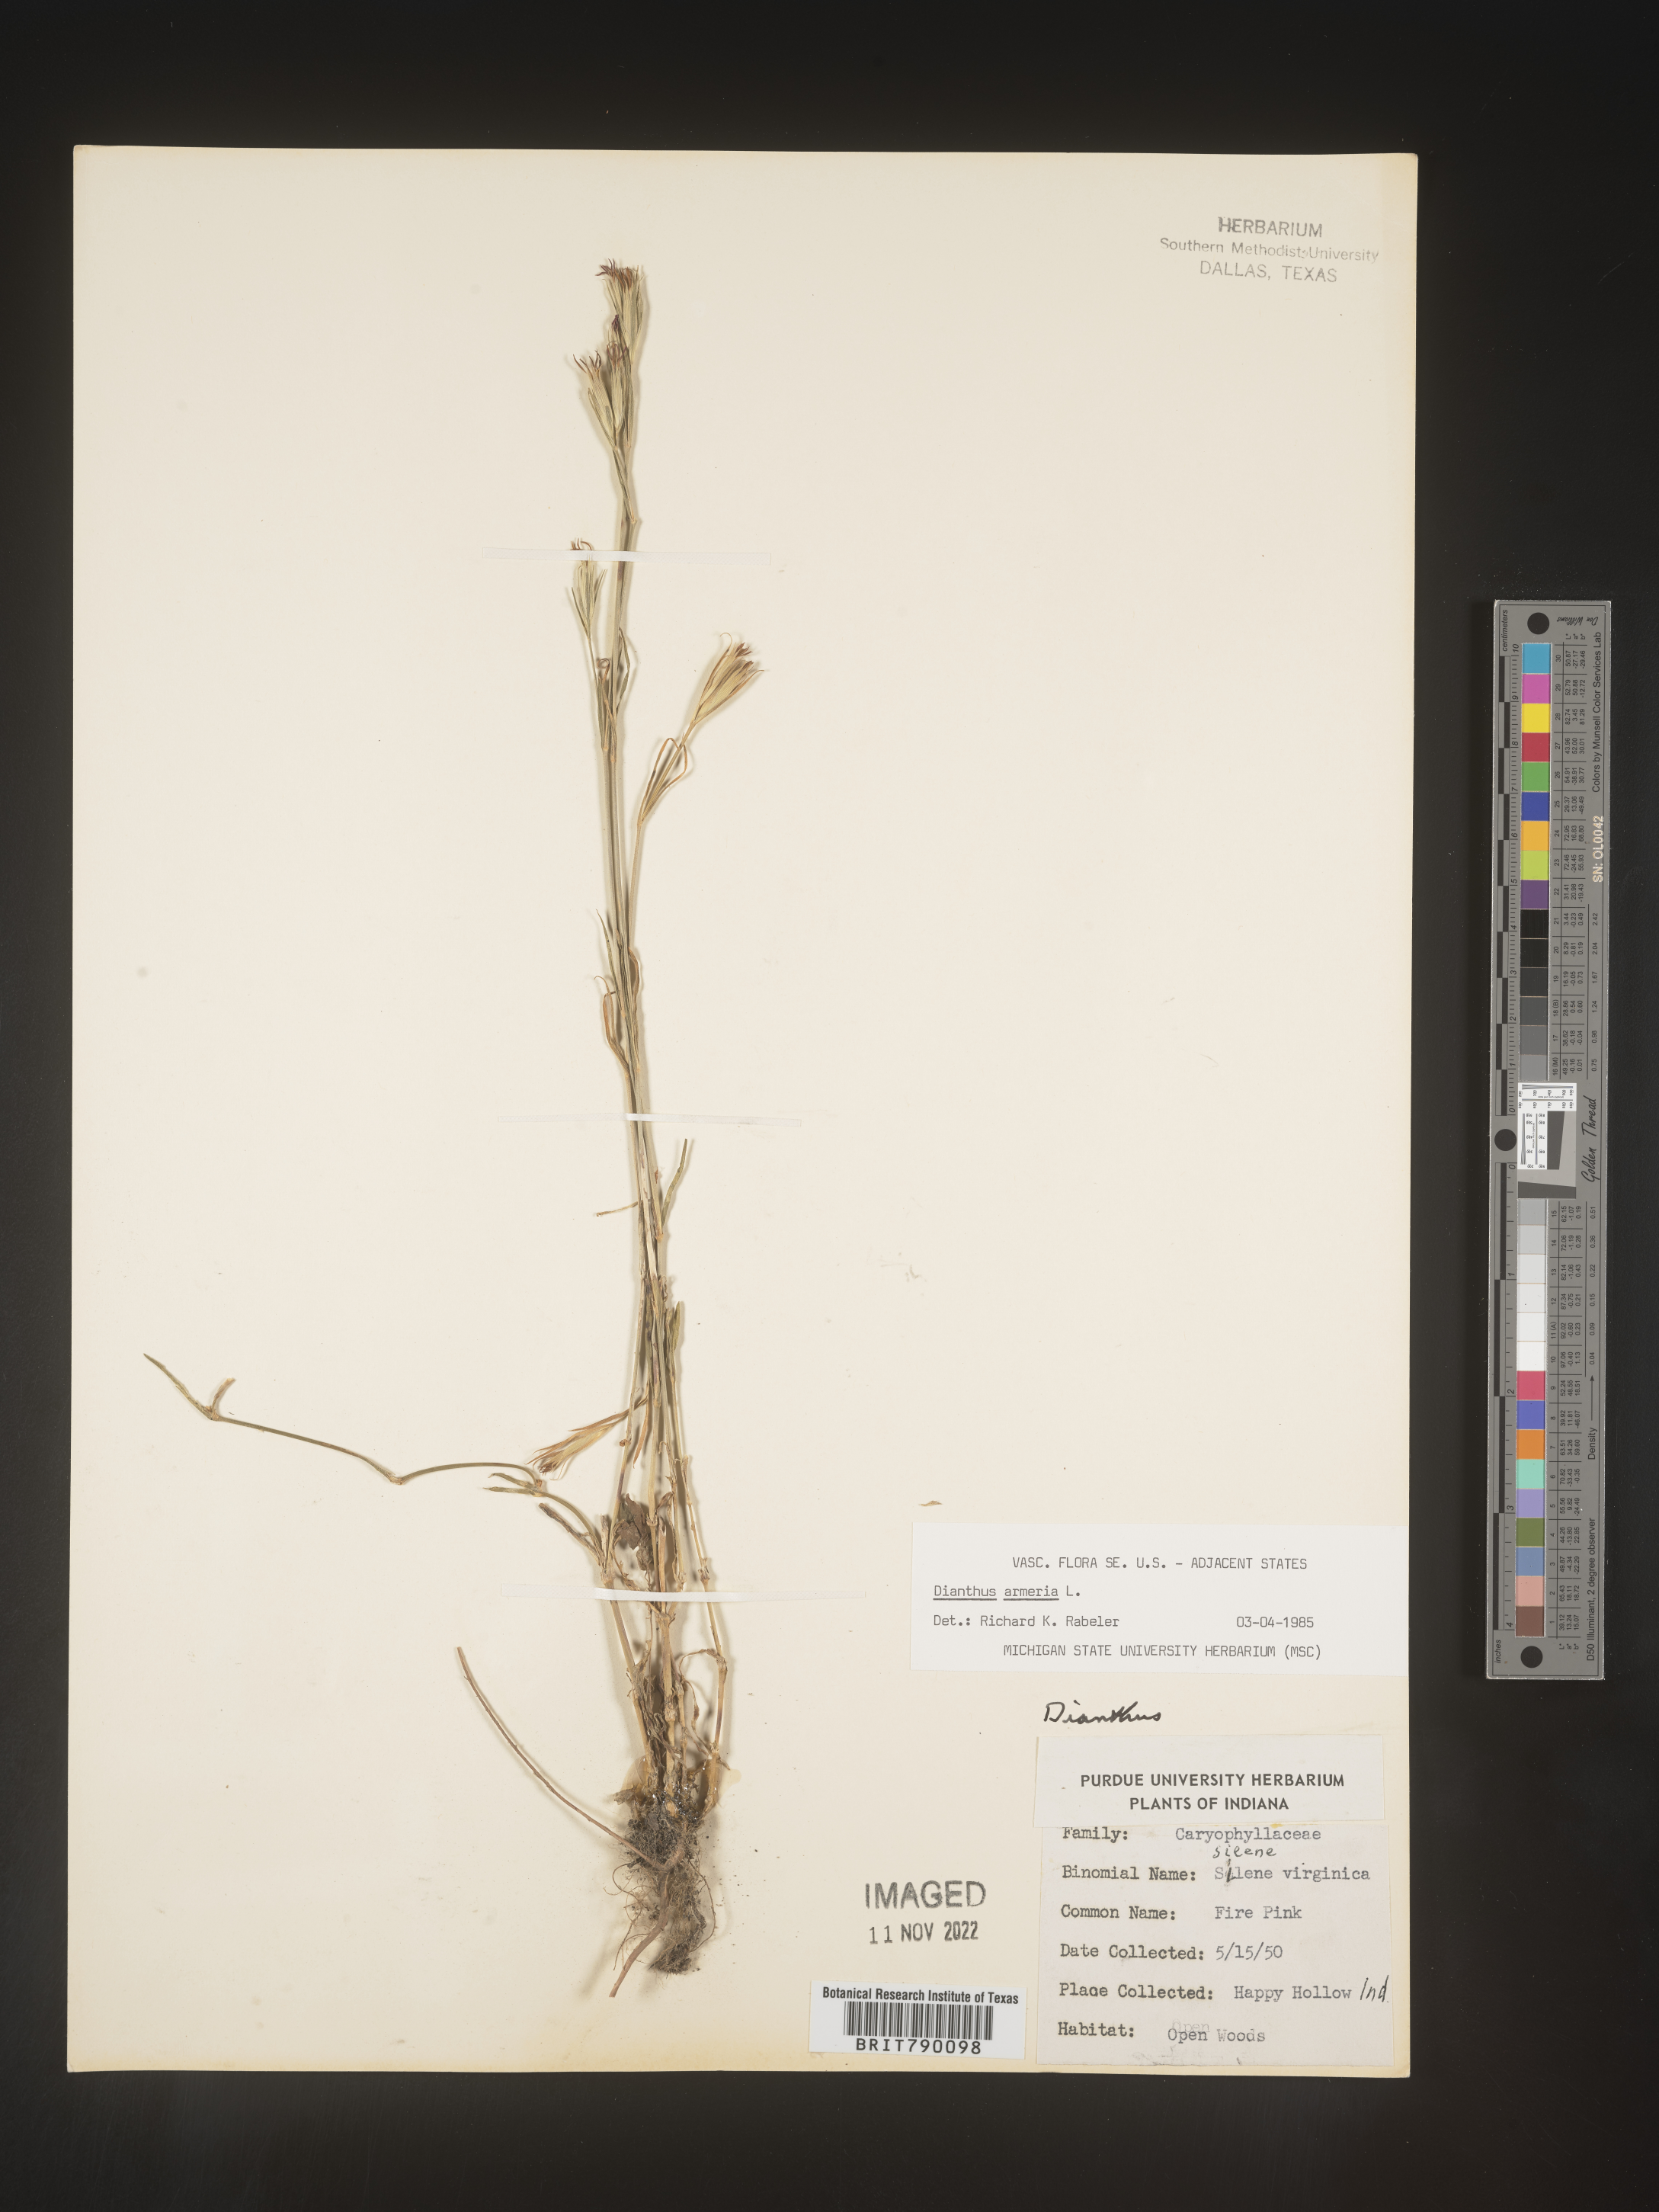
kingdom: Plantae
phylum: Tracheophyta
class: Magnoliopsida
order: Caryophyllales
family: Caryophyllaceae
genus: Dianthus
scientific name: Dianthus armeria
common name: Deptford pink
